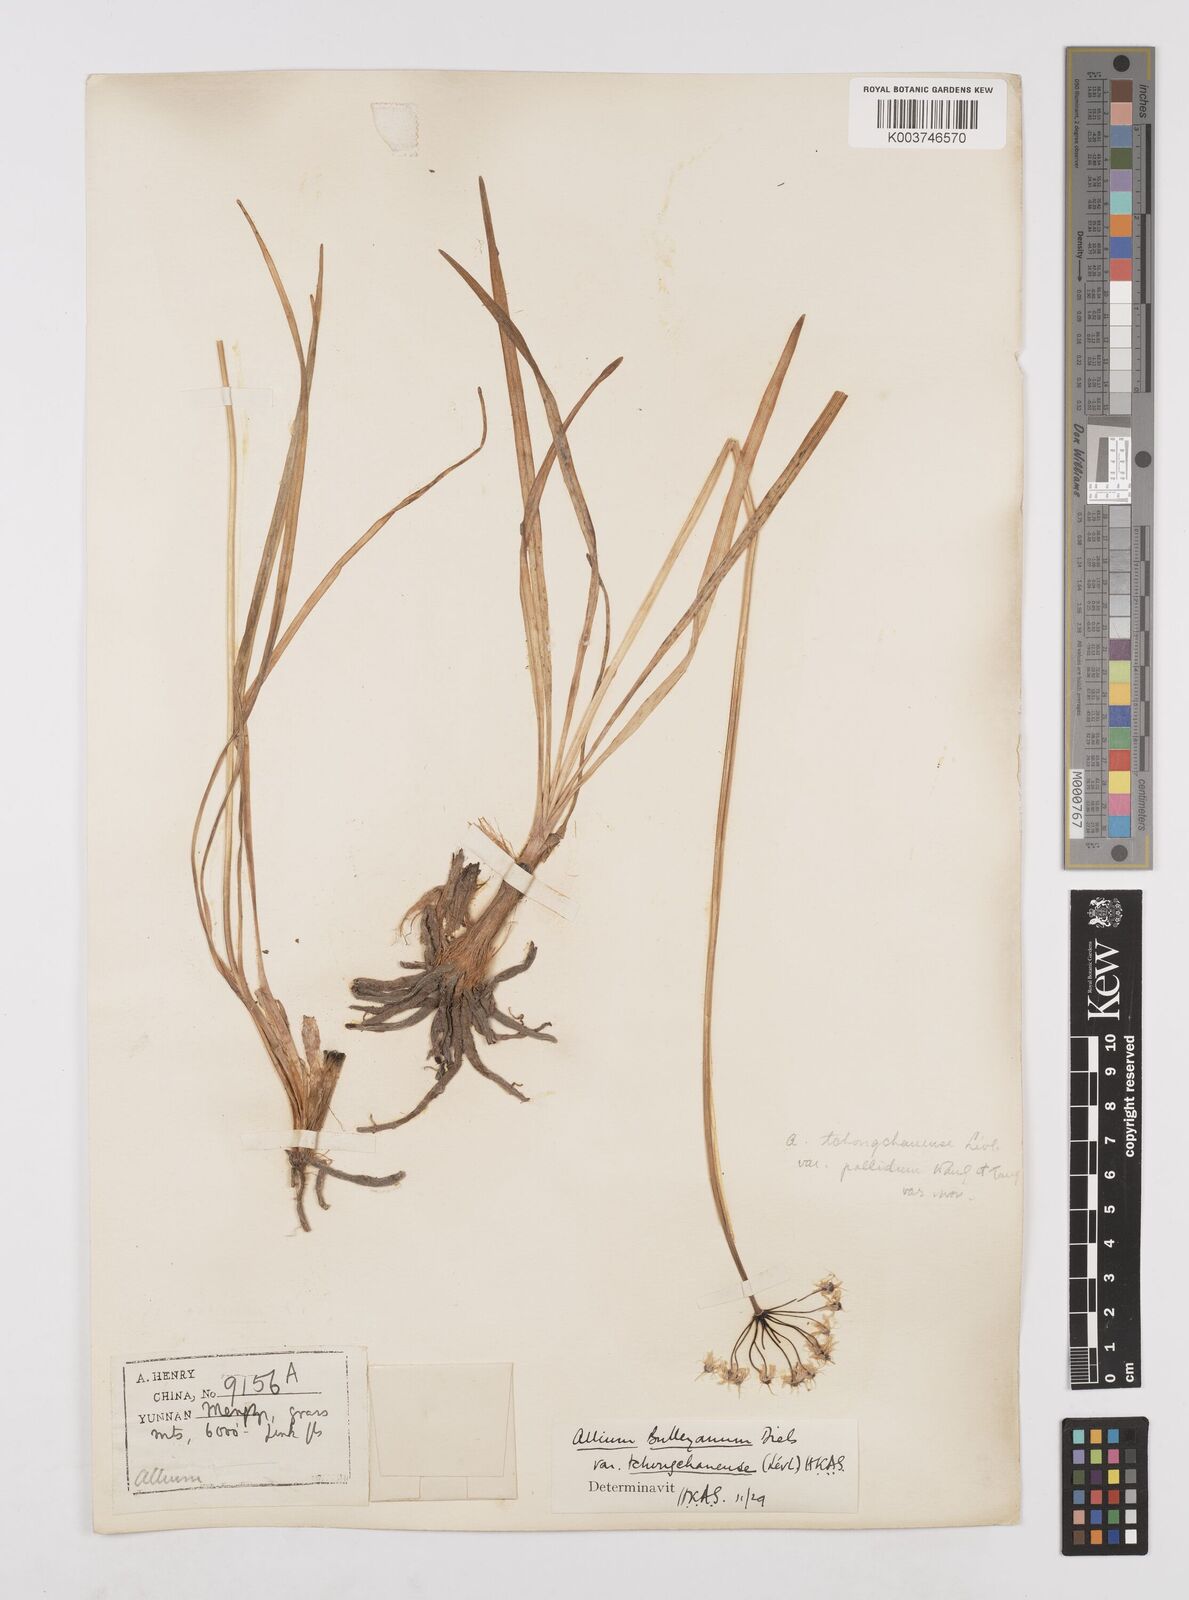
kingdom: Plantae
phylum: Tracheophyta
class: Liliopsida
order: Asparagales
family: Amaryllidaceae
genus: Allium
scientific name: Allium wallichii
